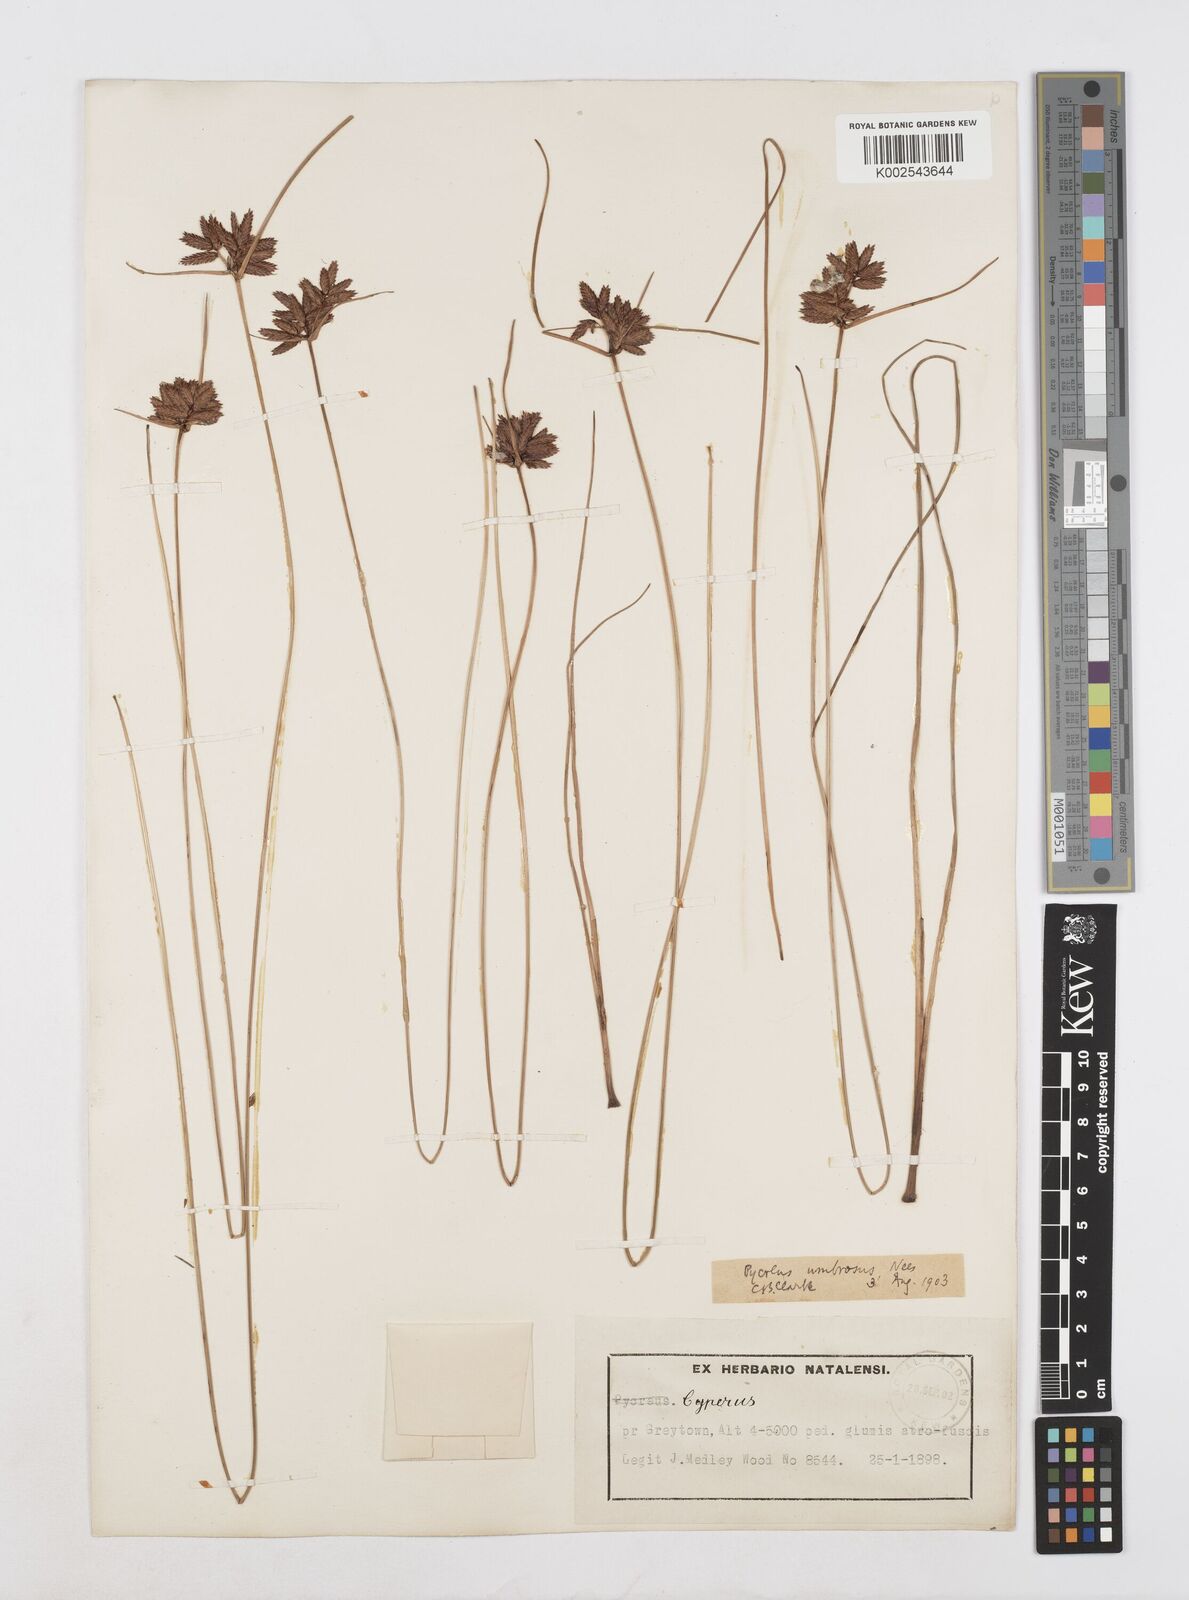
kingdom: Plantae
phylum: Tracheophyta
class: Liliopsida
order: Poales
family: Cyperaceae
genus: Cyperus
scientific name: Cyperus nitidus
